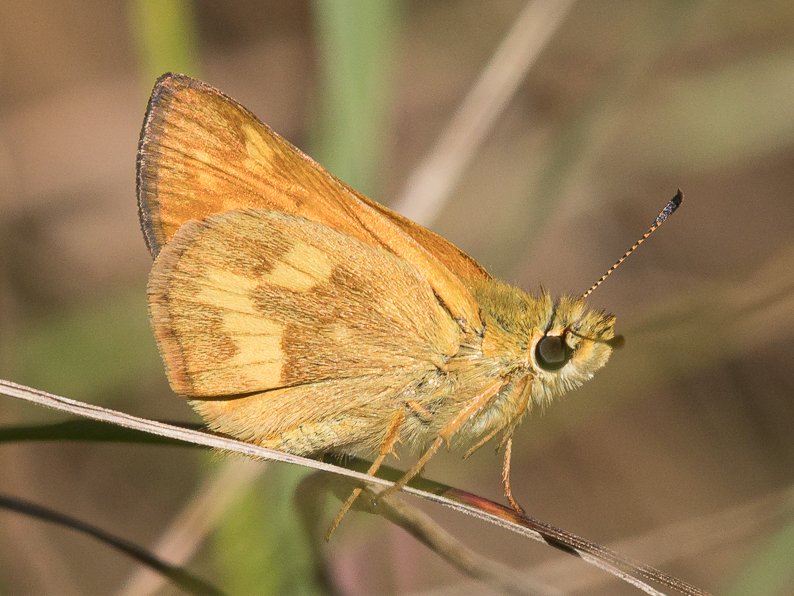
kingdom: Animalia
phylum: Arthropoda
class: Insecta
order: Lepidoptera
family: Hesperiidae
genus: Ochlodes
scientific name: Ochlodes sylvanoides
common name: Woodland Skipper
